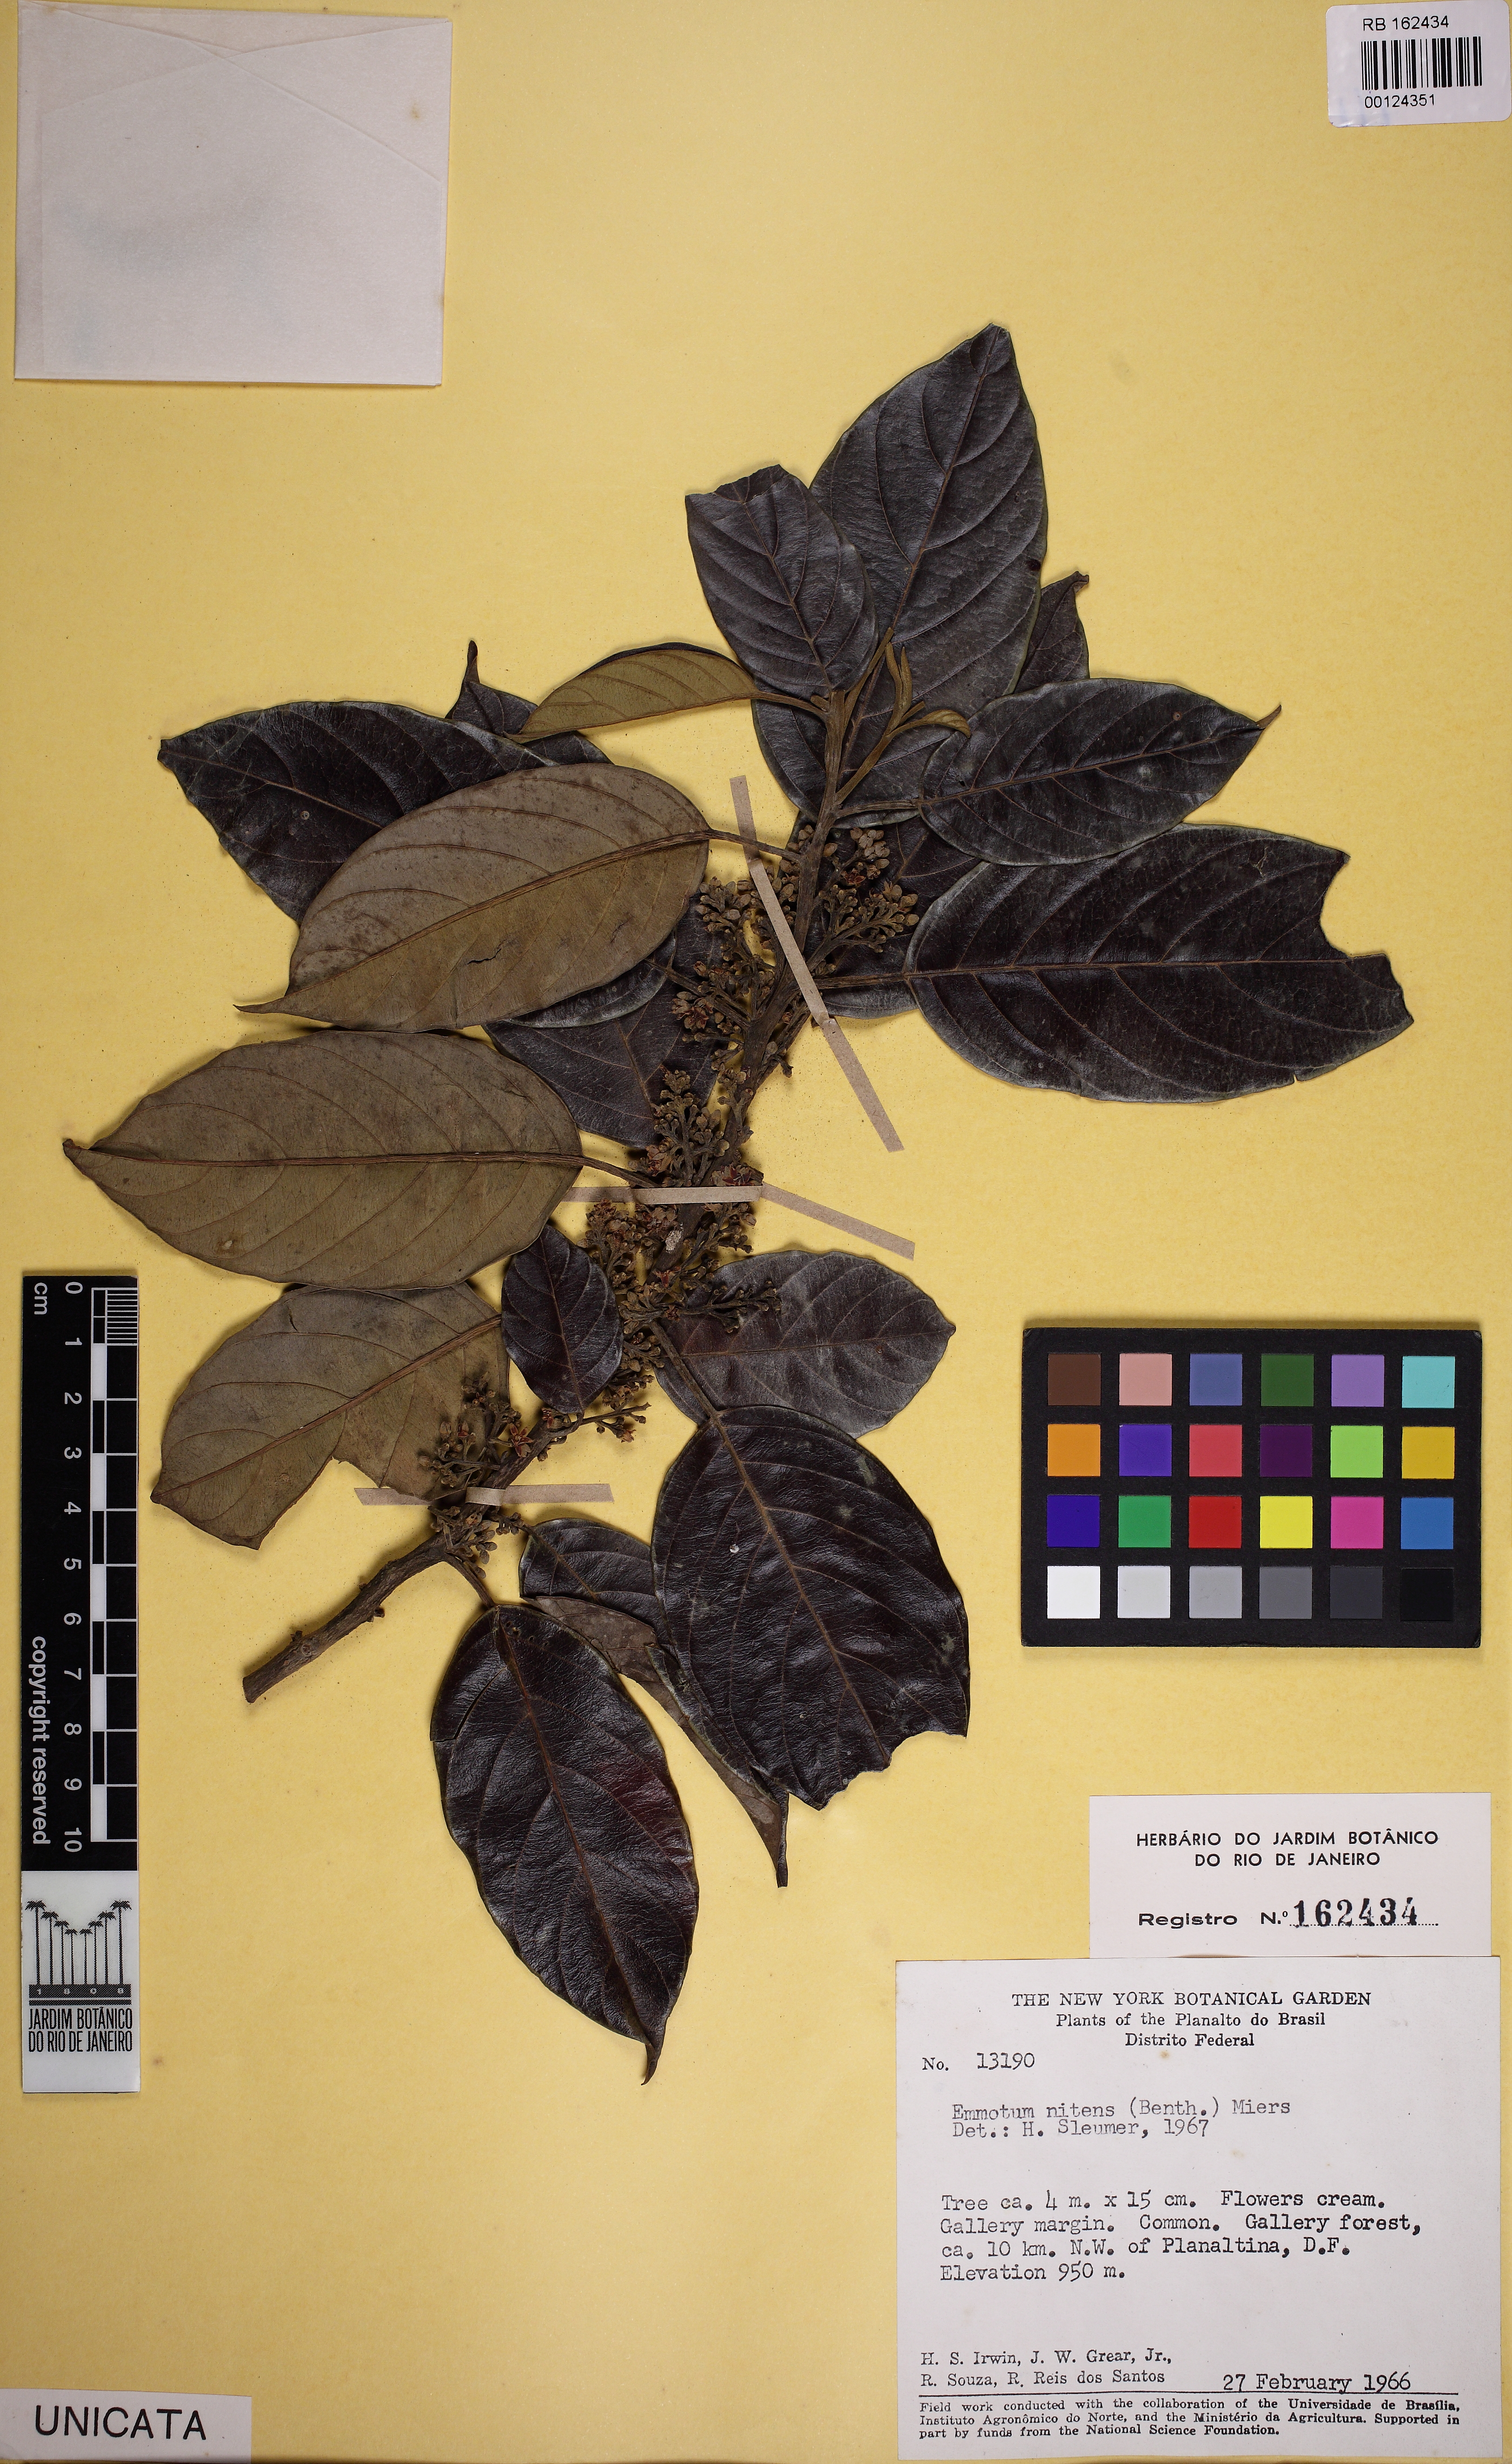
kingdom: Plantae
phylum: Tracheophyta
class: Magnoliopsida
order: Metteniusales
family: Metteniusaceae
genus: Emmotum
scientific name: Emmotum nitens
